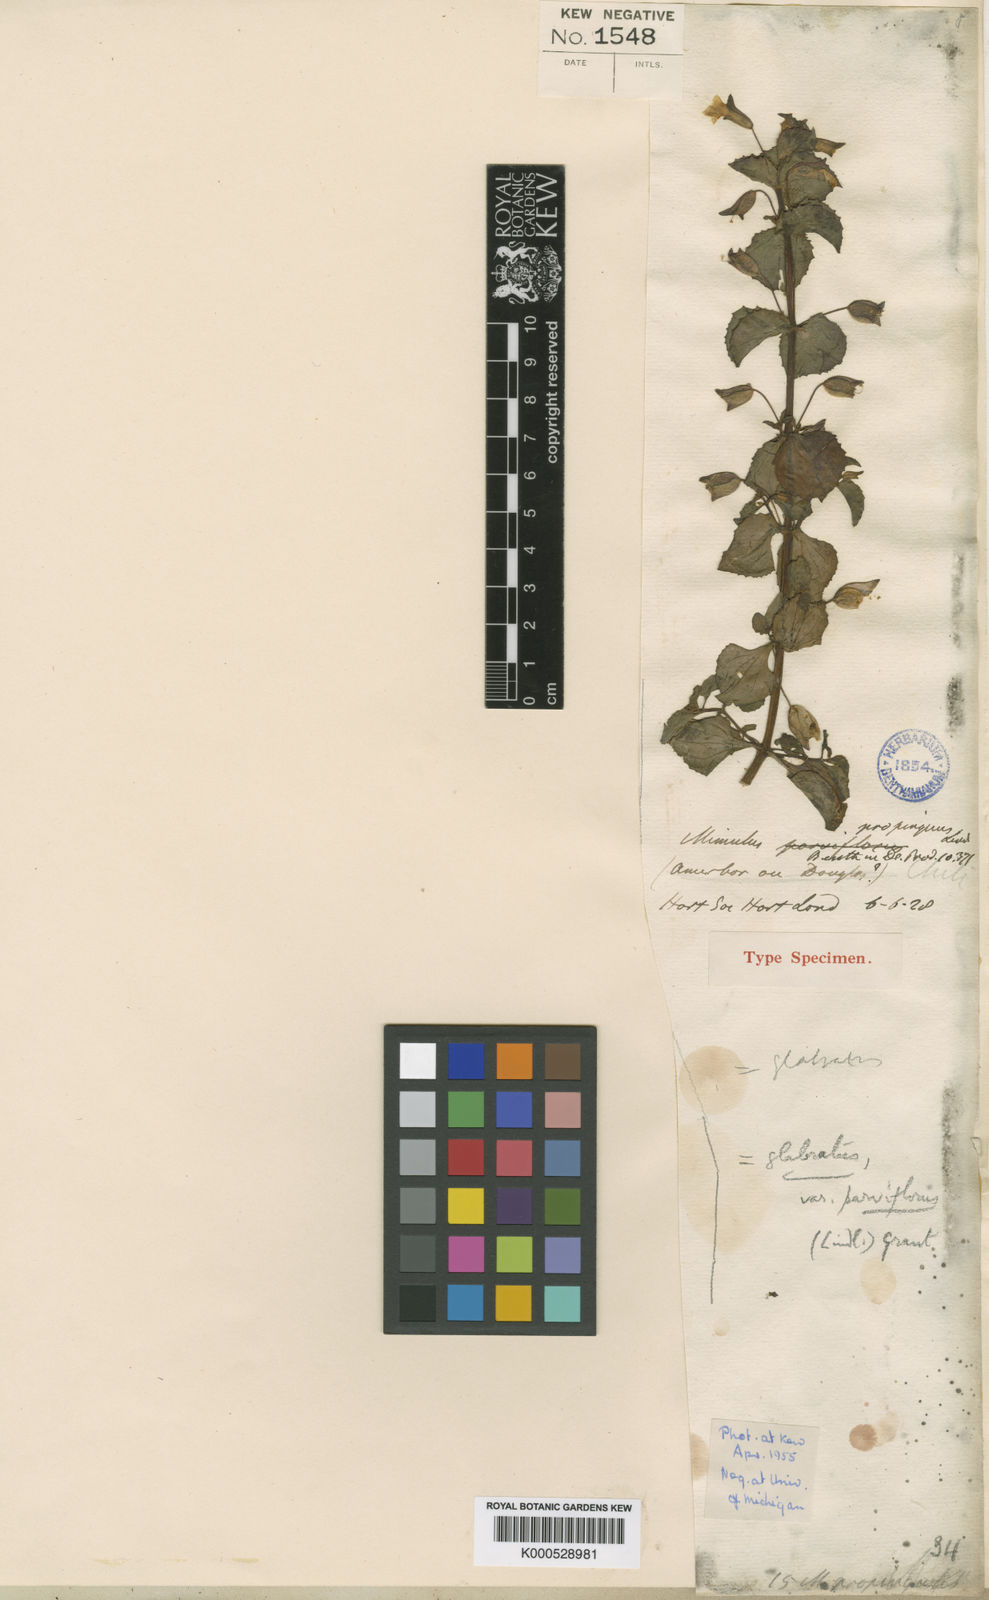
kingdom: Plantae
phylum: Tracheophyta
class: Magnoliopsida
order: Lamiales
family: Phrymaceae
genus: Erythranthe
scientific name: Erythranthe madrensis
